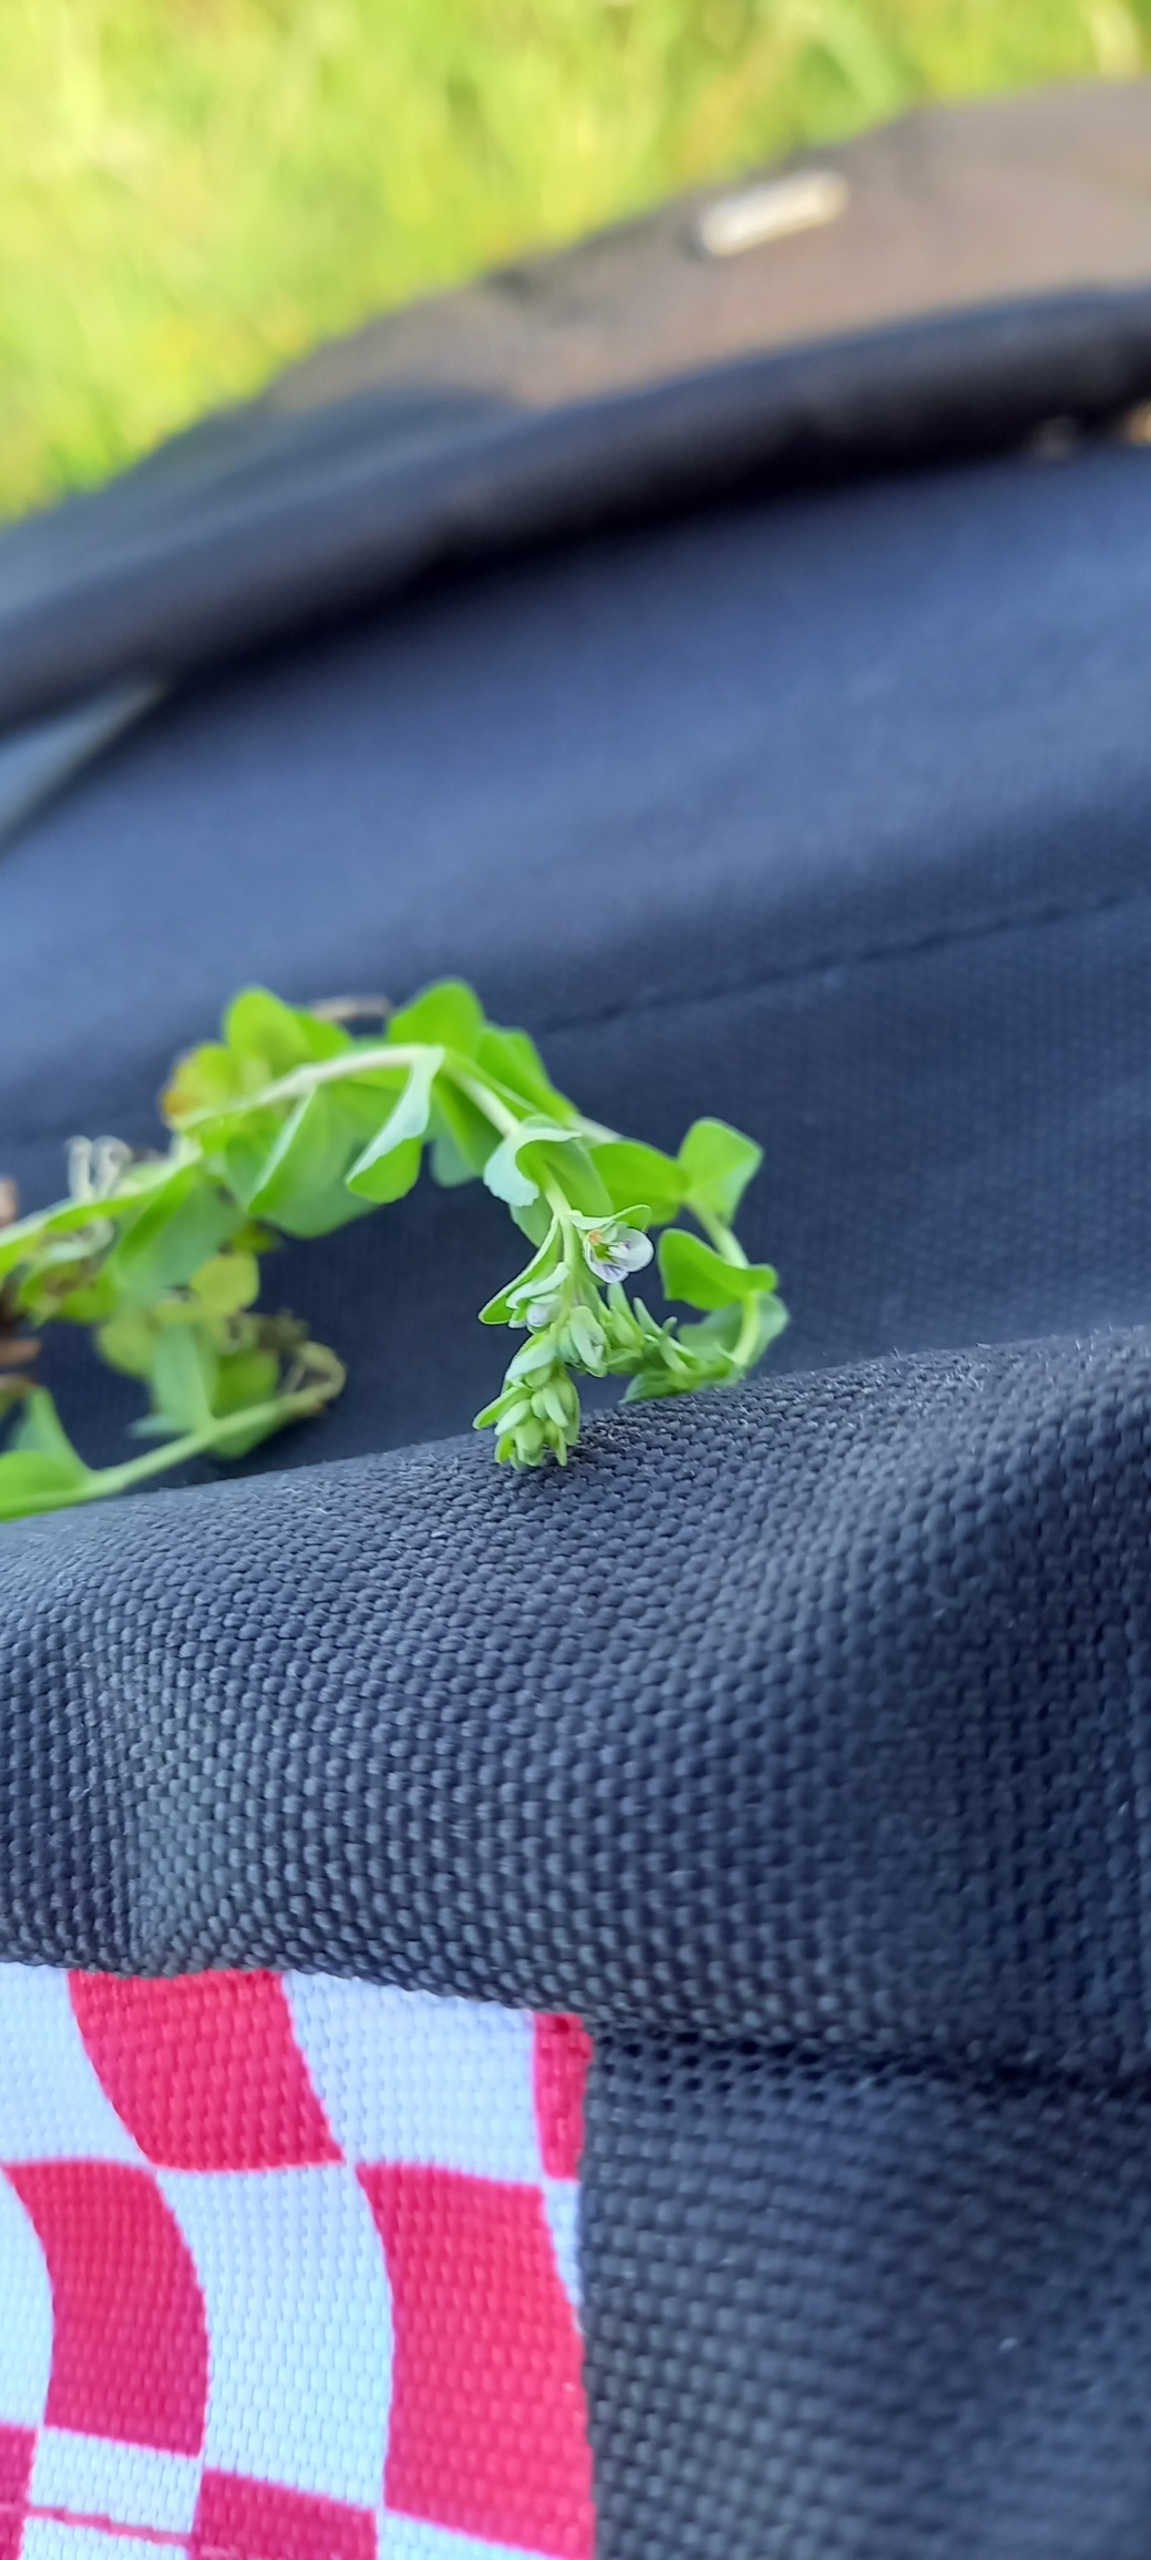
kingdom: Plantae
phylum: Tracheophyta
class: Magnoliopsida
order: Lamiales
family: Plantaginaceae
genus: Veronica
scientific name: Veronica serpyllifolia
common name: Glat ærenpris
